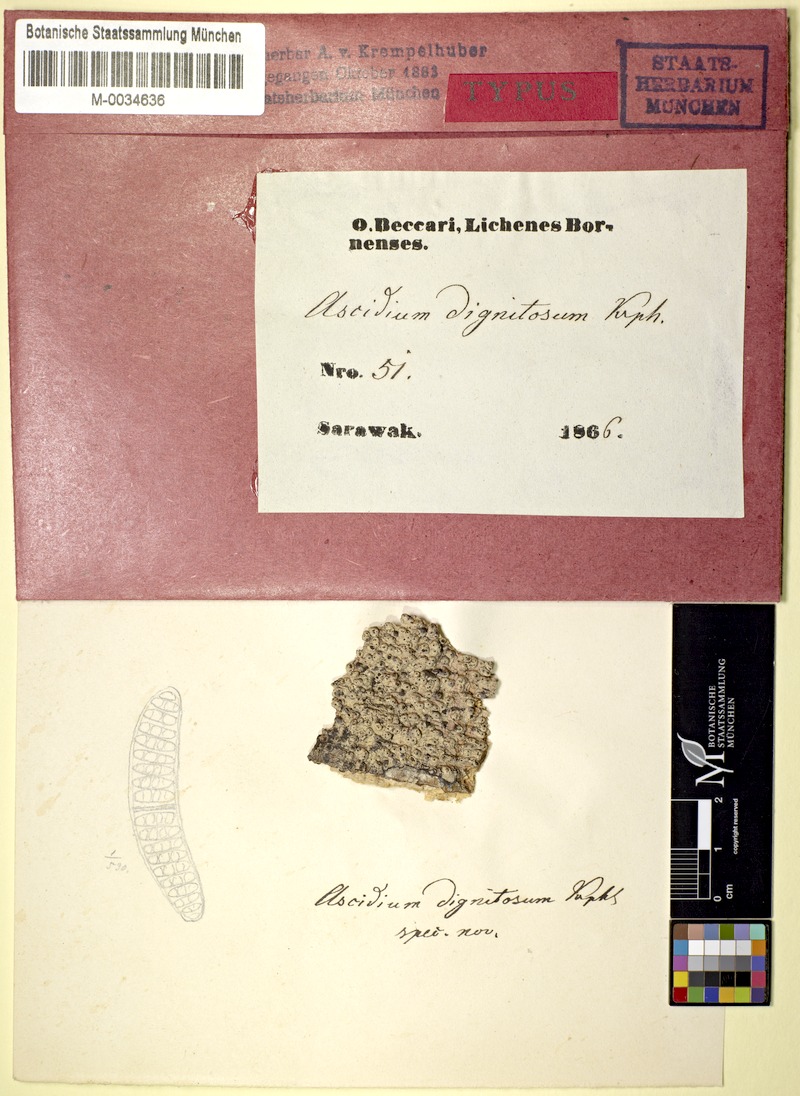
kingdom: Fungi
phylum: Ascomycota
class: Lecanoromycetes
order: Ostropales
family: Graphidaceae
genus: Thelotrema
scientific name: Thelotrema dignitosum
